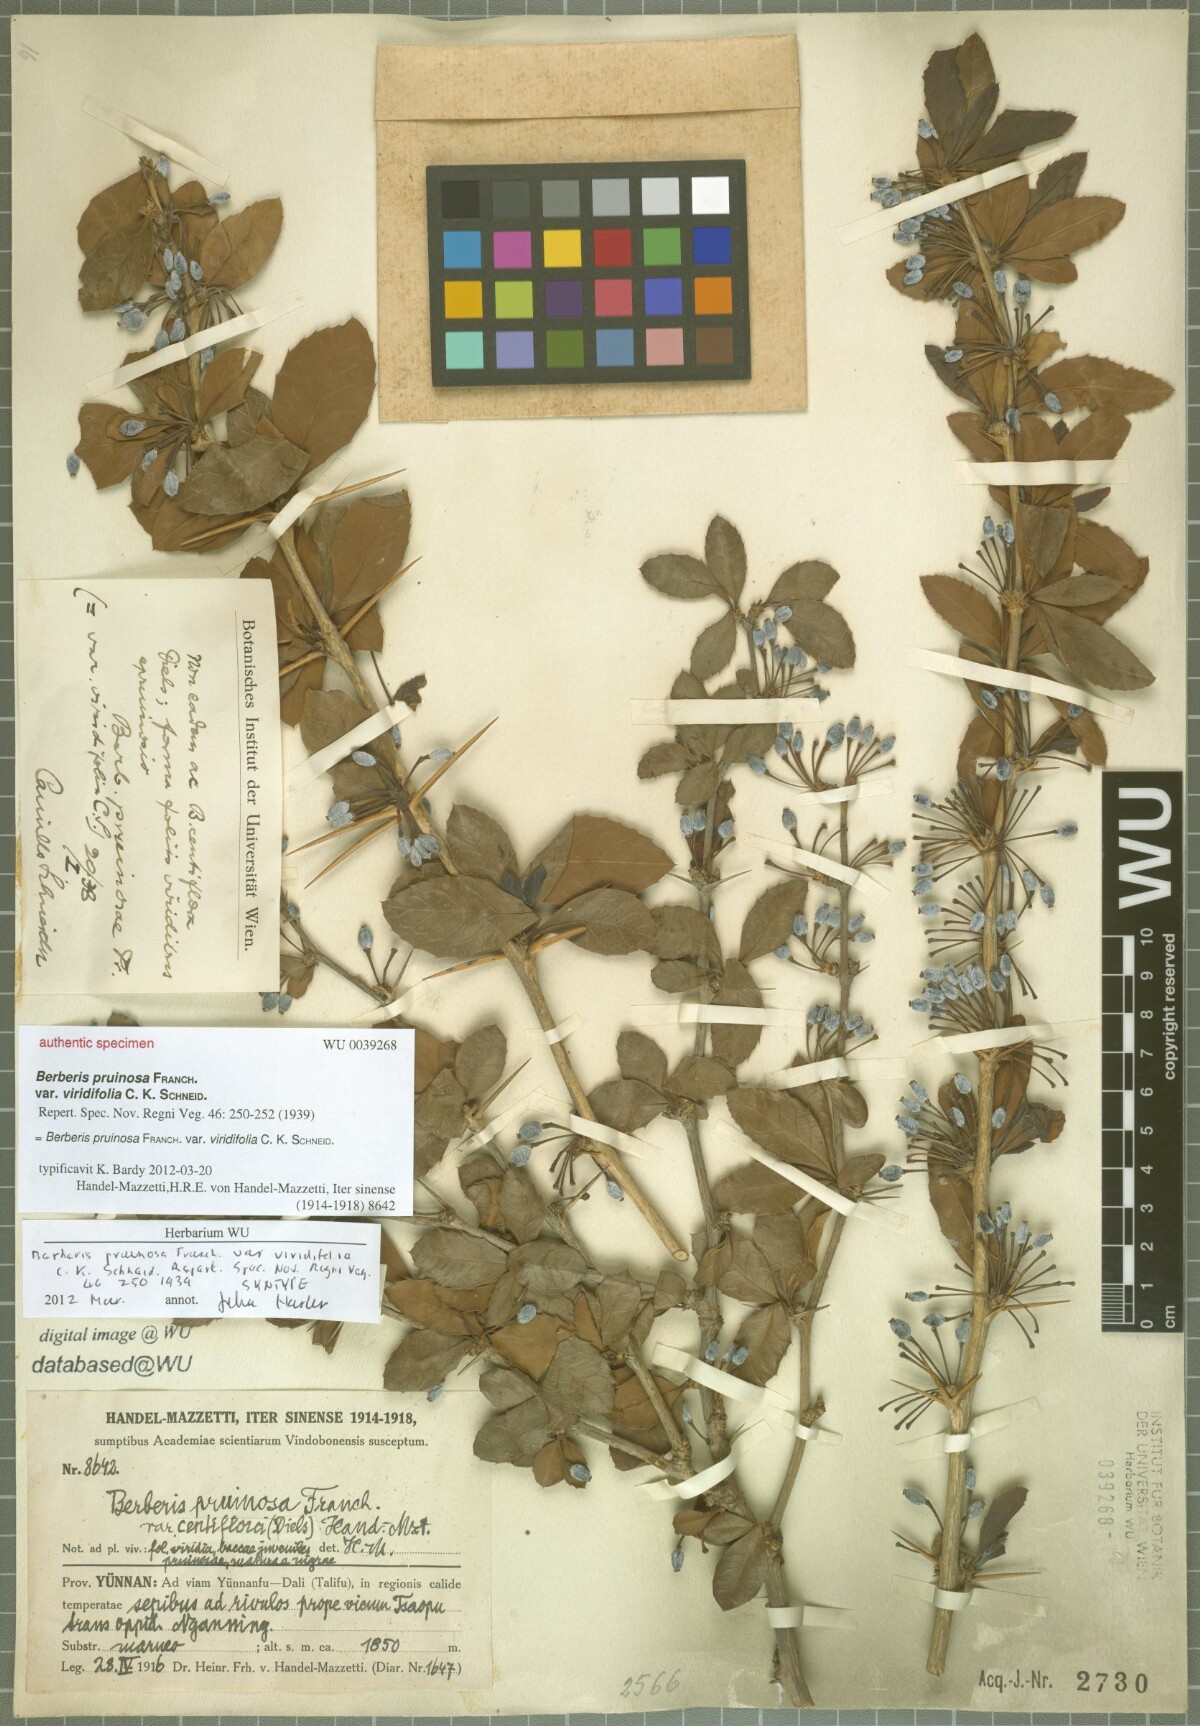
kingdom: Plantae
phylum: Tracheophyta
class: Magnoliopsida
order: Ranunculales
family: Berberidaceae
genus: Berberis
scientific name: Berberis pruinosa
